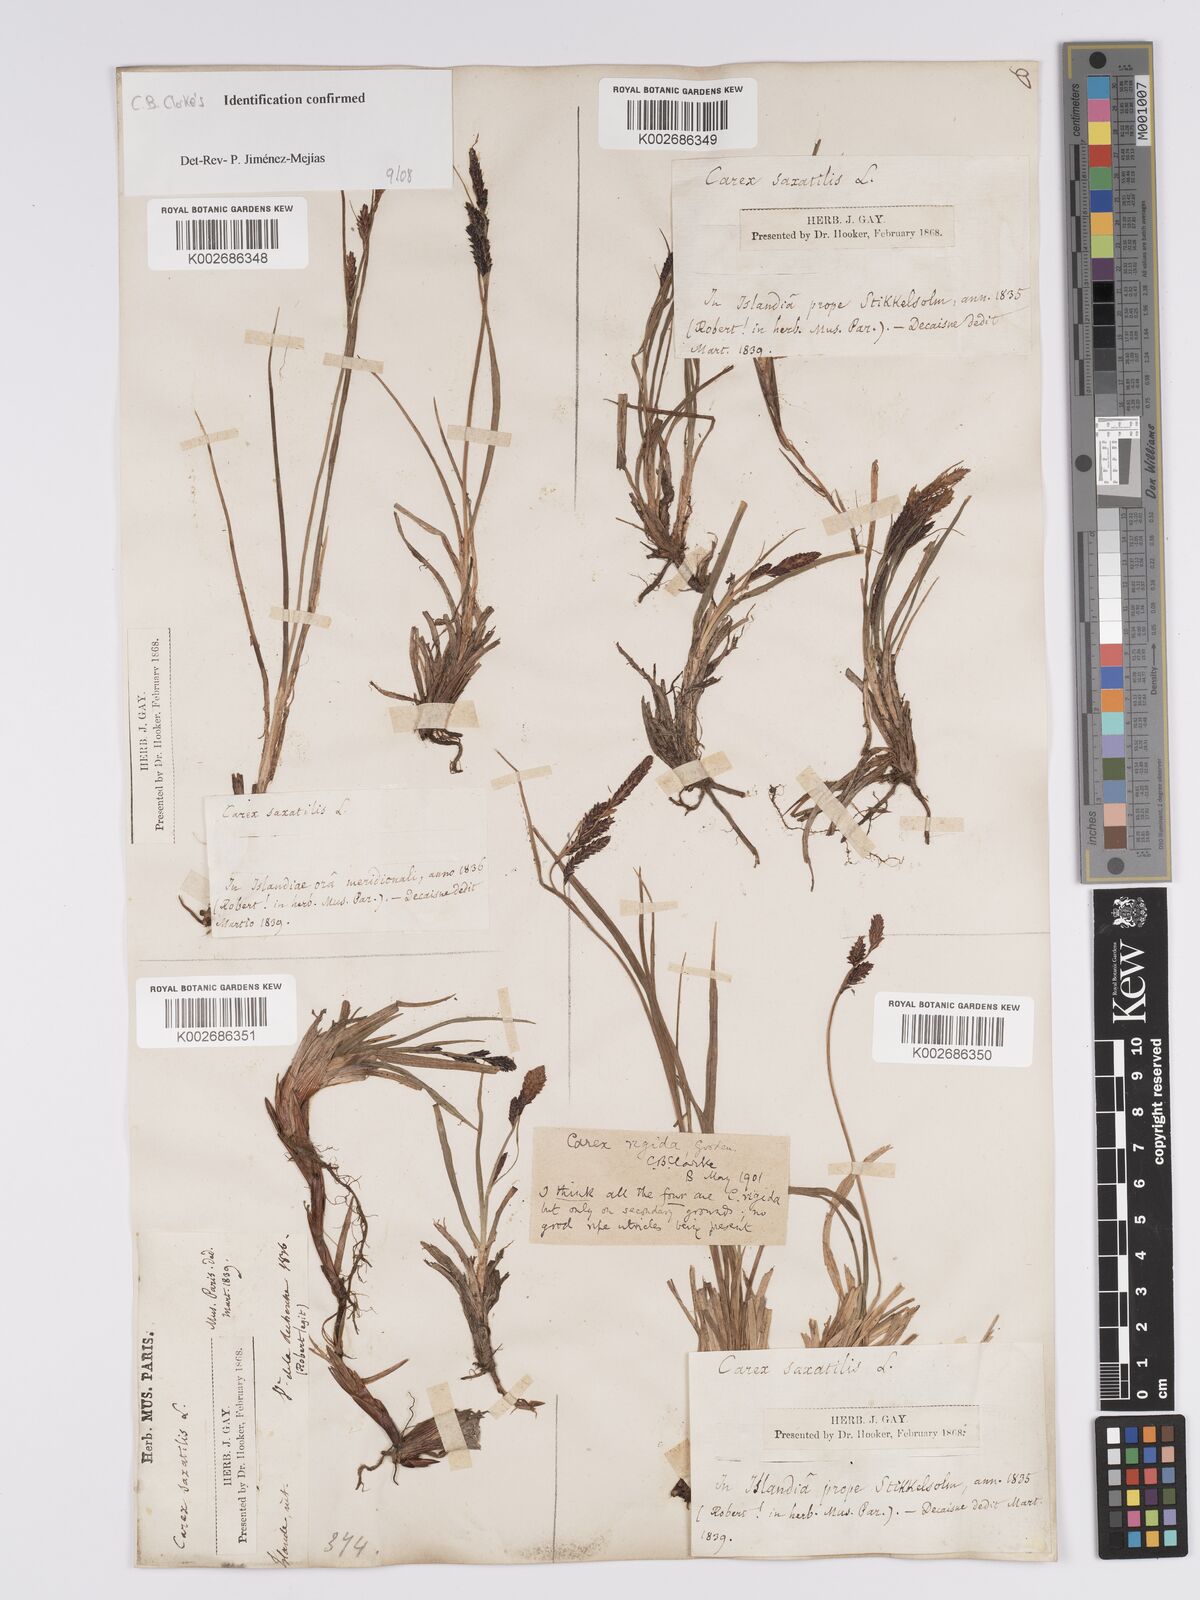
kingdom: Plantae
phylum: Tracheophyta
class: Liliopsida
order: Poales
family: Cyperaceae
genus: Carex
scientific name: Carex bigelowii
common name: Stiff sedge
